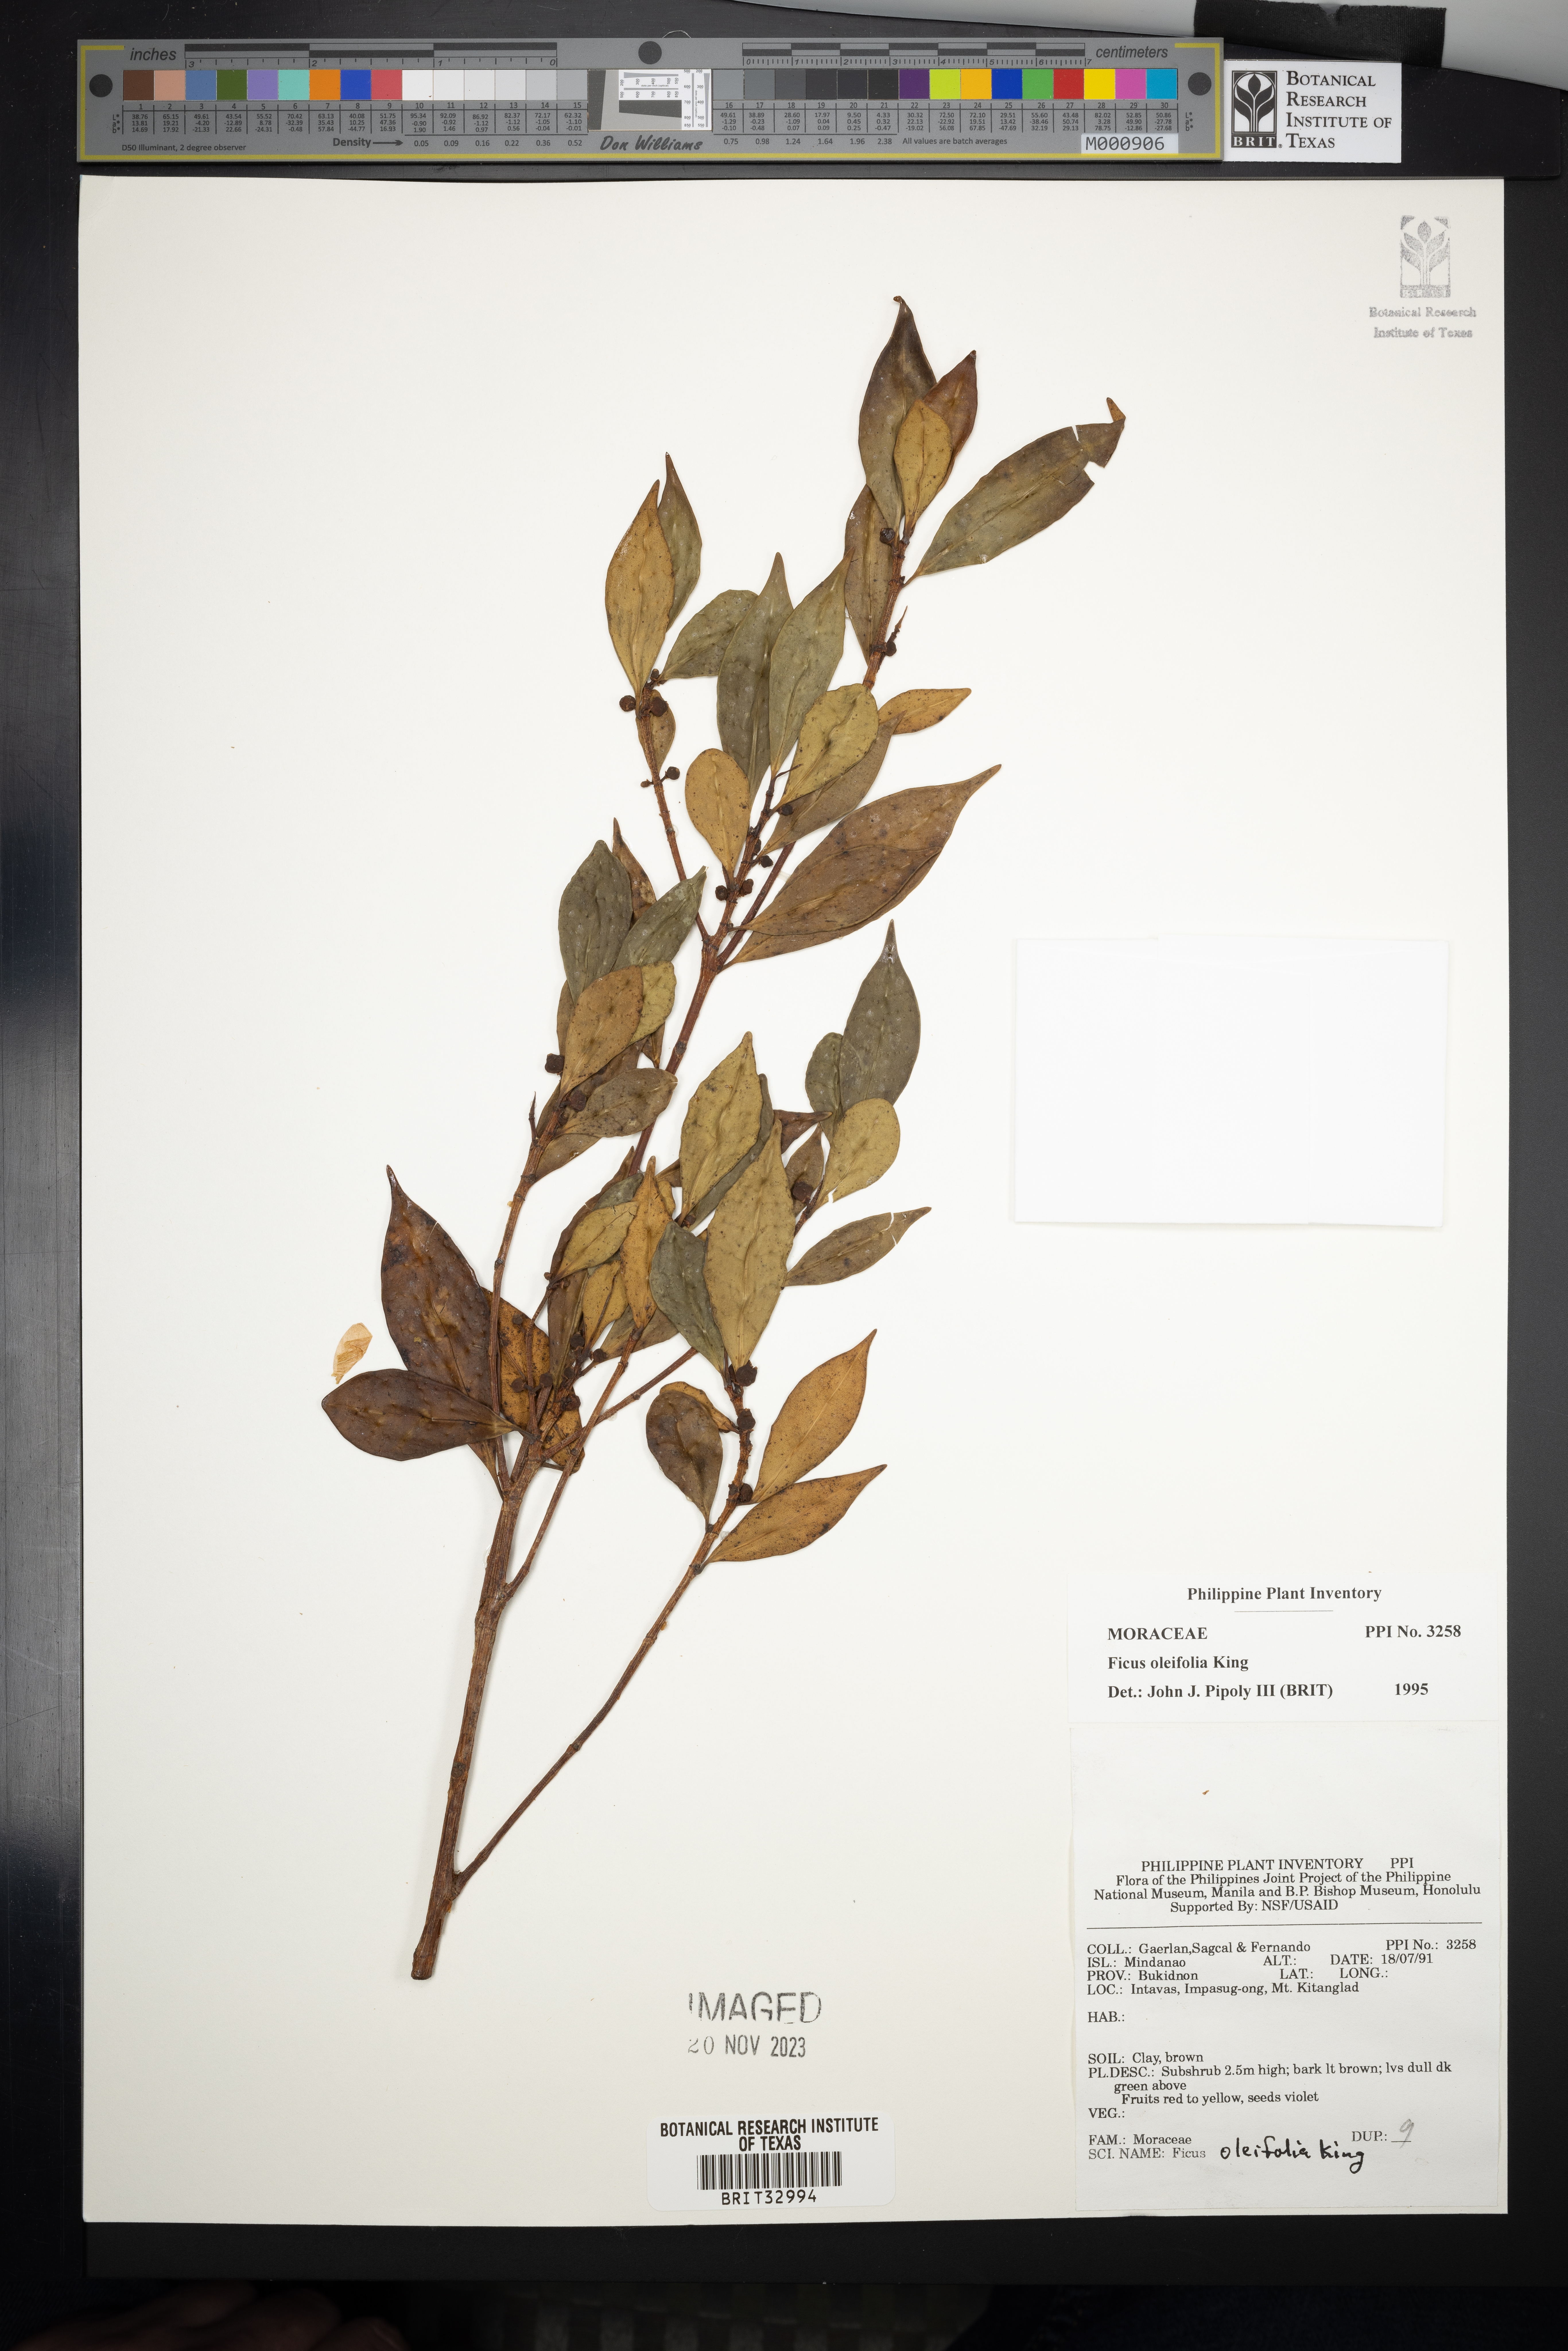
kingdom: Plantae
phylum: Tracheophyta
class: Magnoliopsida
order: Rosales
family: Moraceae
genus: Ficus
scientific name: Ficus oleifolia
